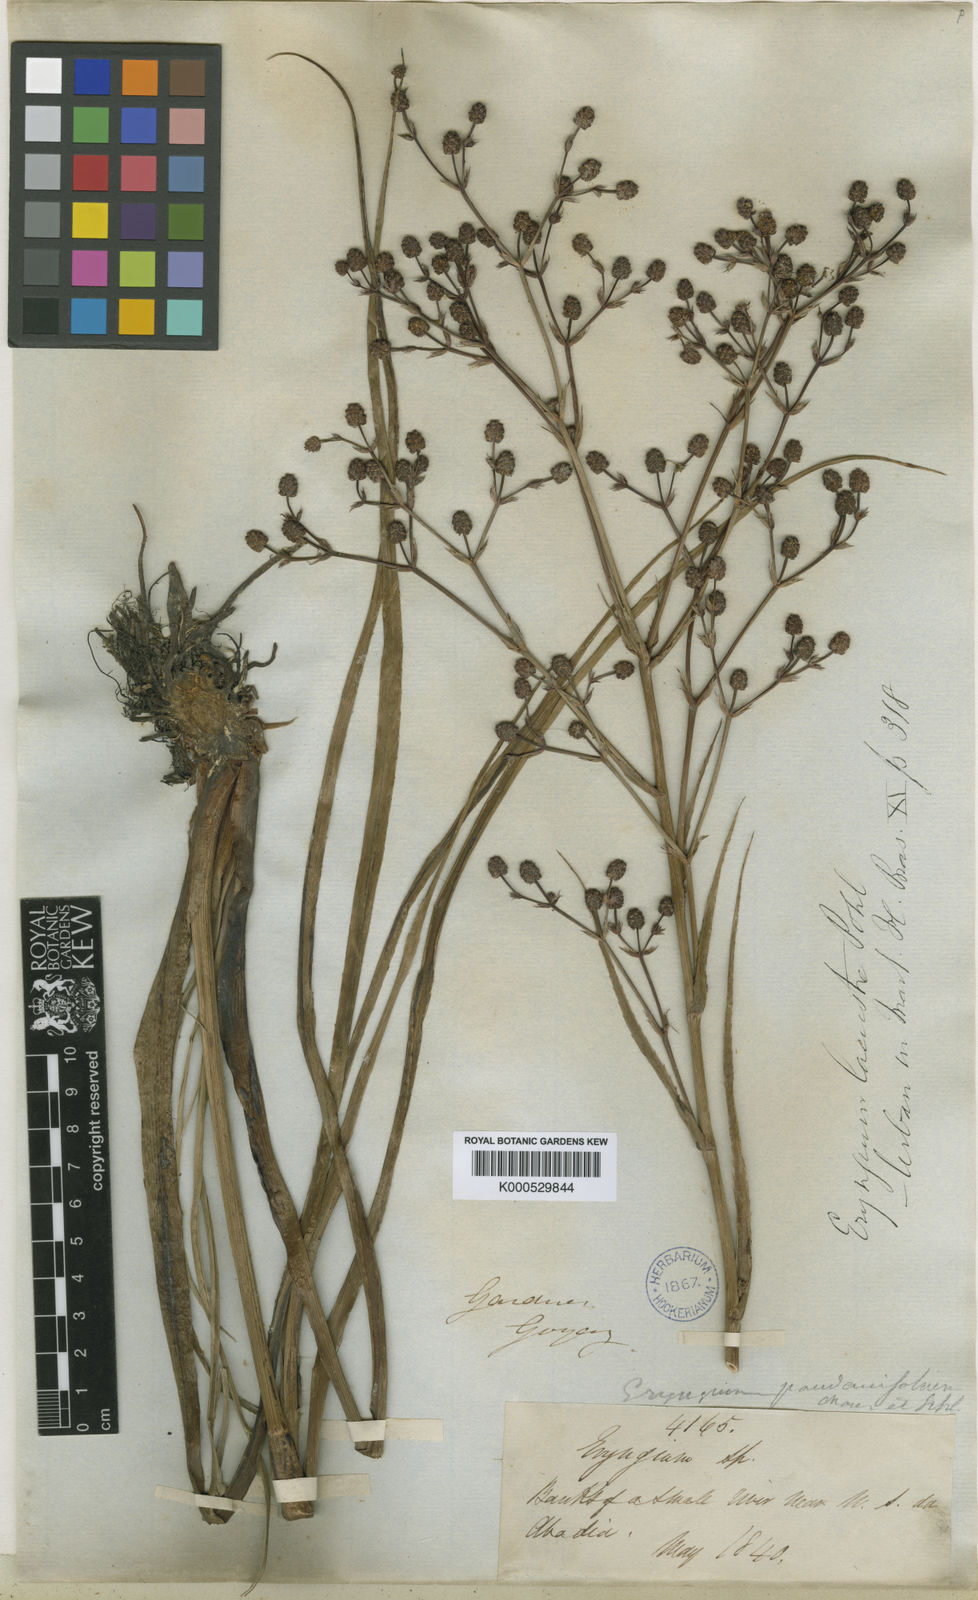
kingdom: Plantae
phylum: Tracheophyta
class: Magnoliopsida
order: Apiales
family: Apiaceae
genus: Eryngium
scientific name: Eryngium
